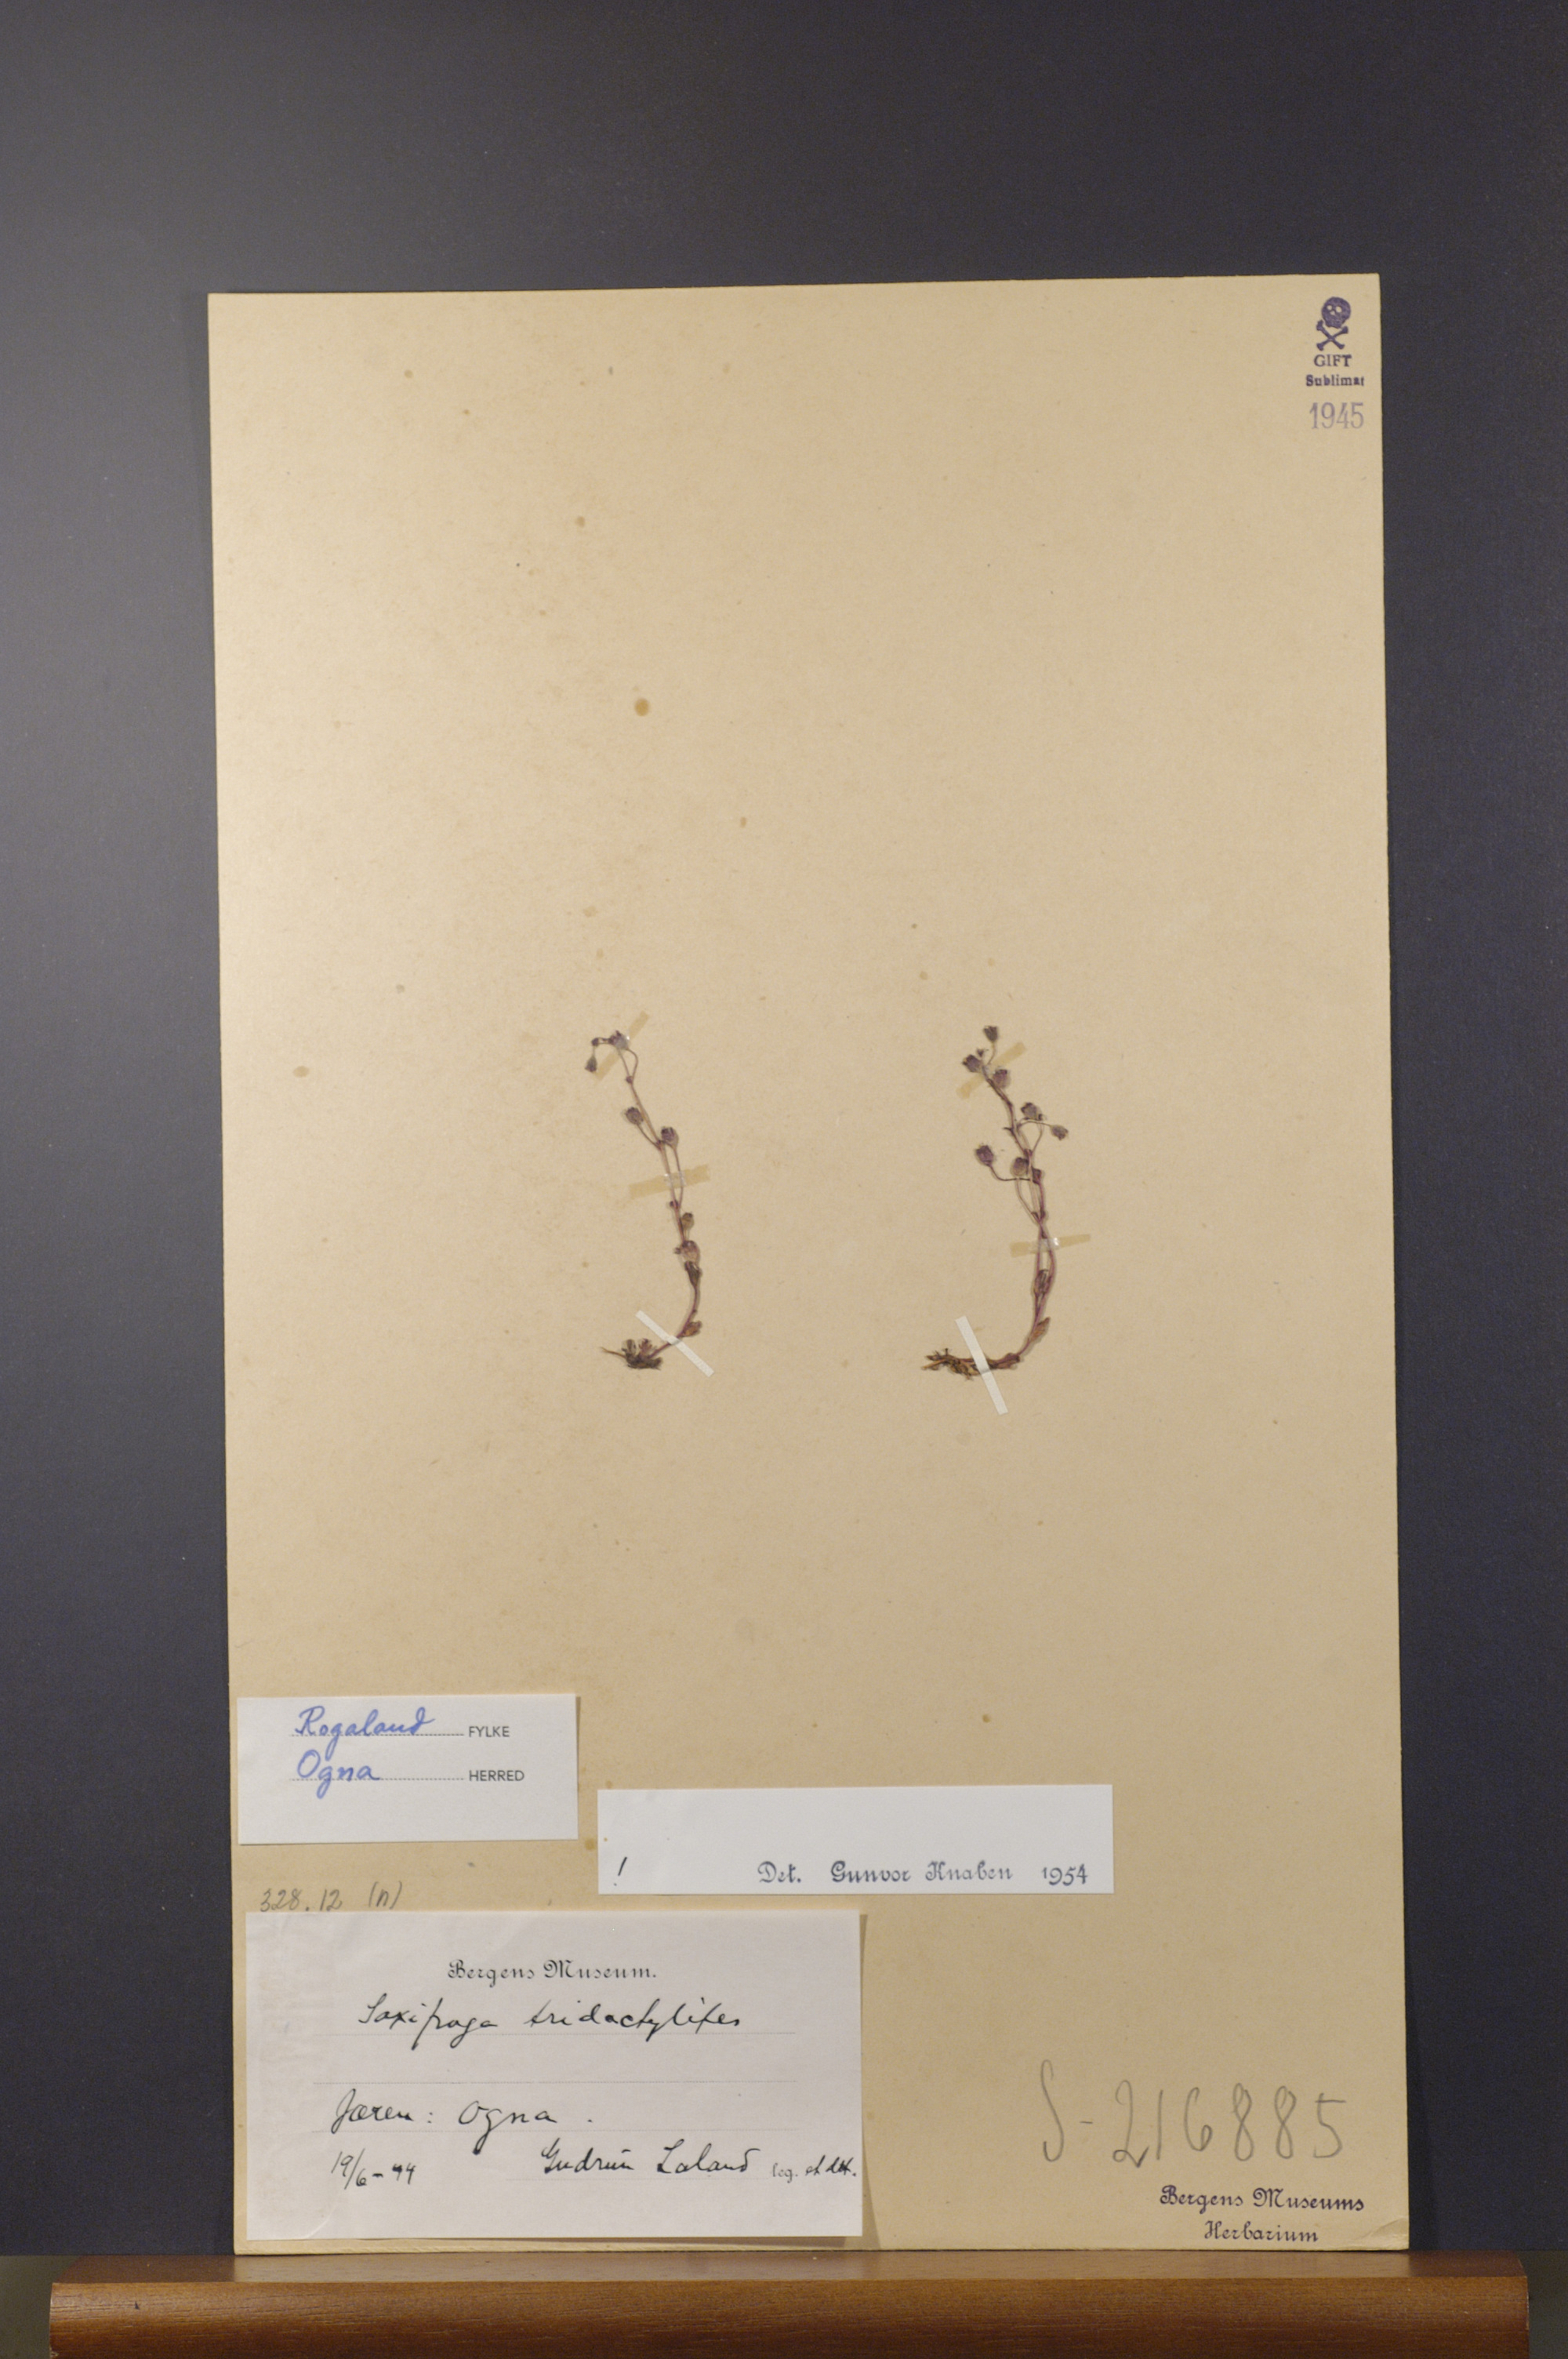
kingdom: Plantae
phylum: Tracheophyta
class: Magnoliopsida
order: Saxifragales
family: Saxifragaceae
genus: Saxifraga
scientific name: Saxifraga tridactylites
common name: Rue-leaved saxifrage
